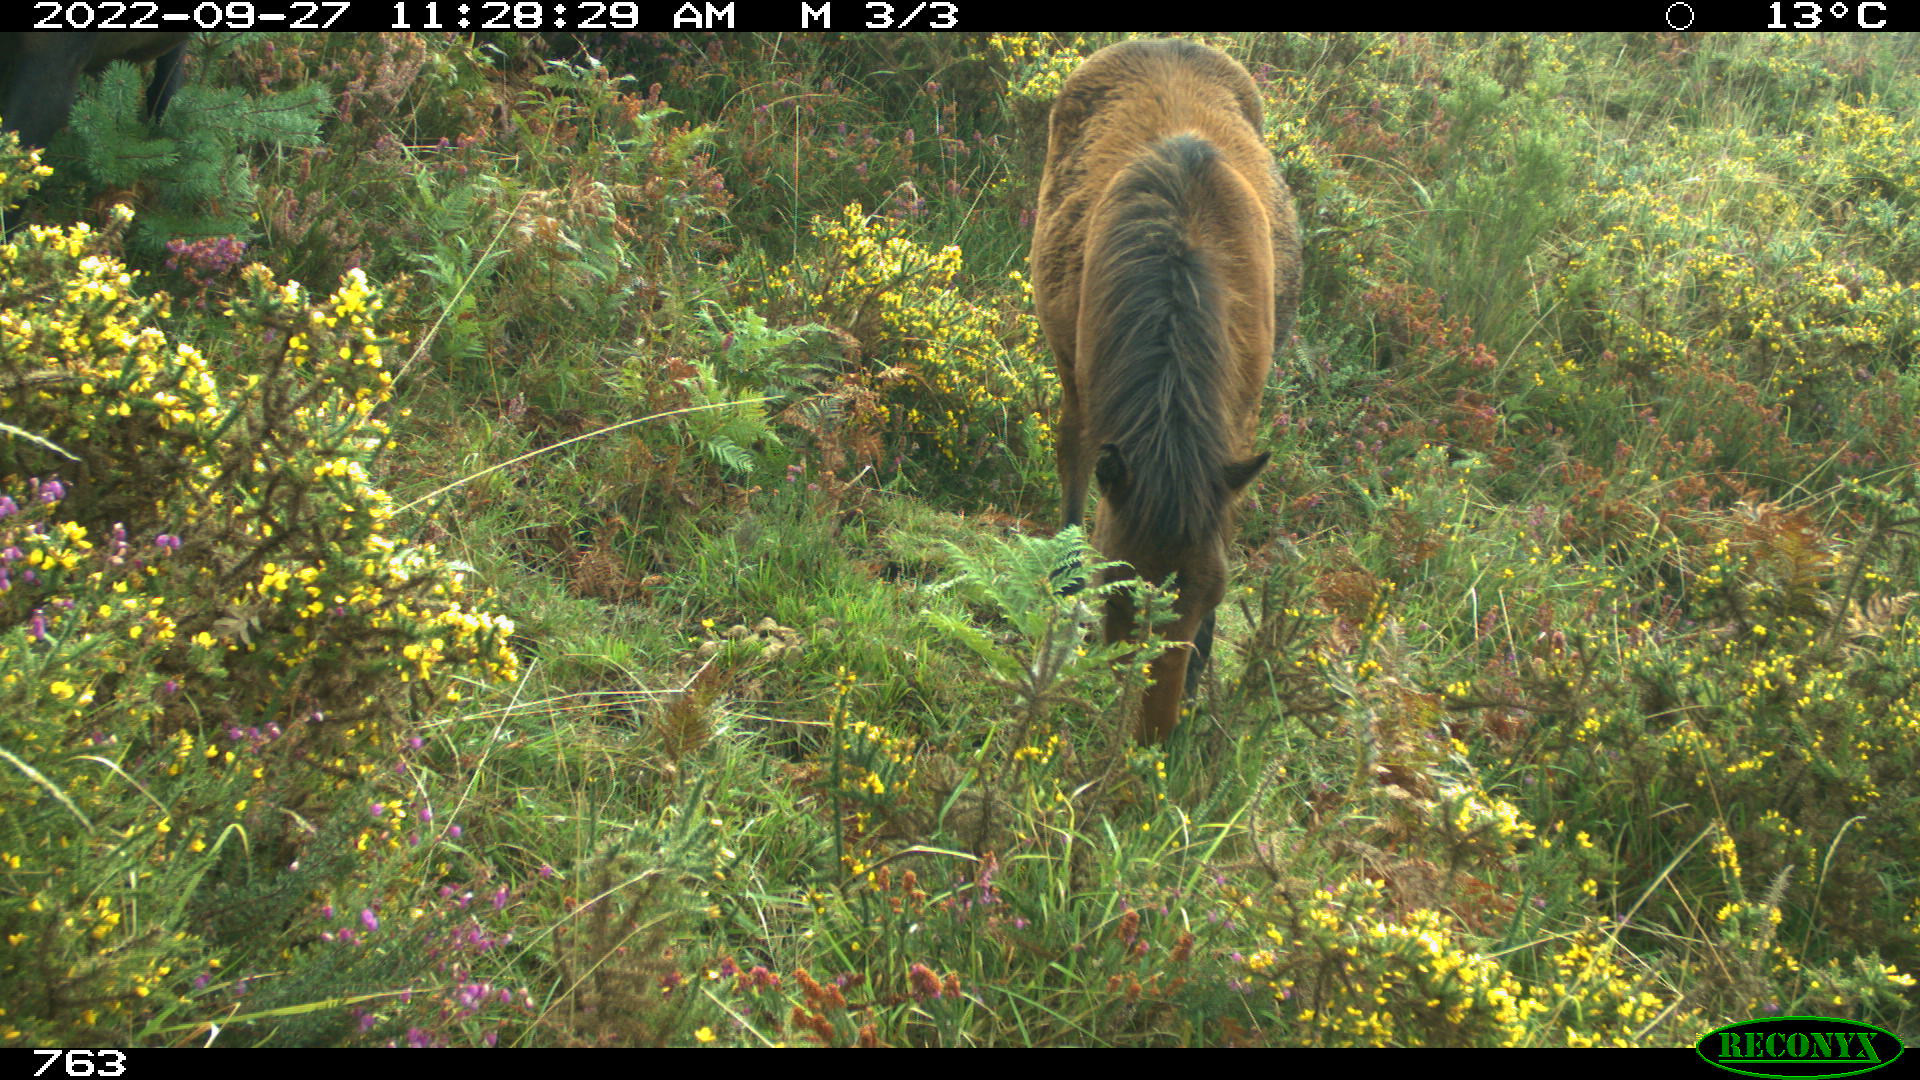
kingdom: Animalia
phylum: Chordata
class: Mammalia
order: Perissodactyla
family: Equidae
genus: Equus
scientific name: Equus caballus
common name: Horse
